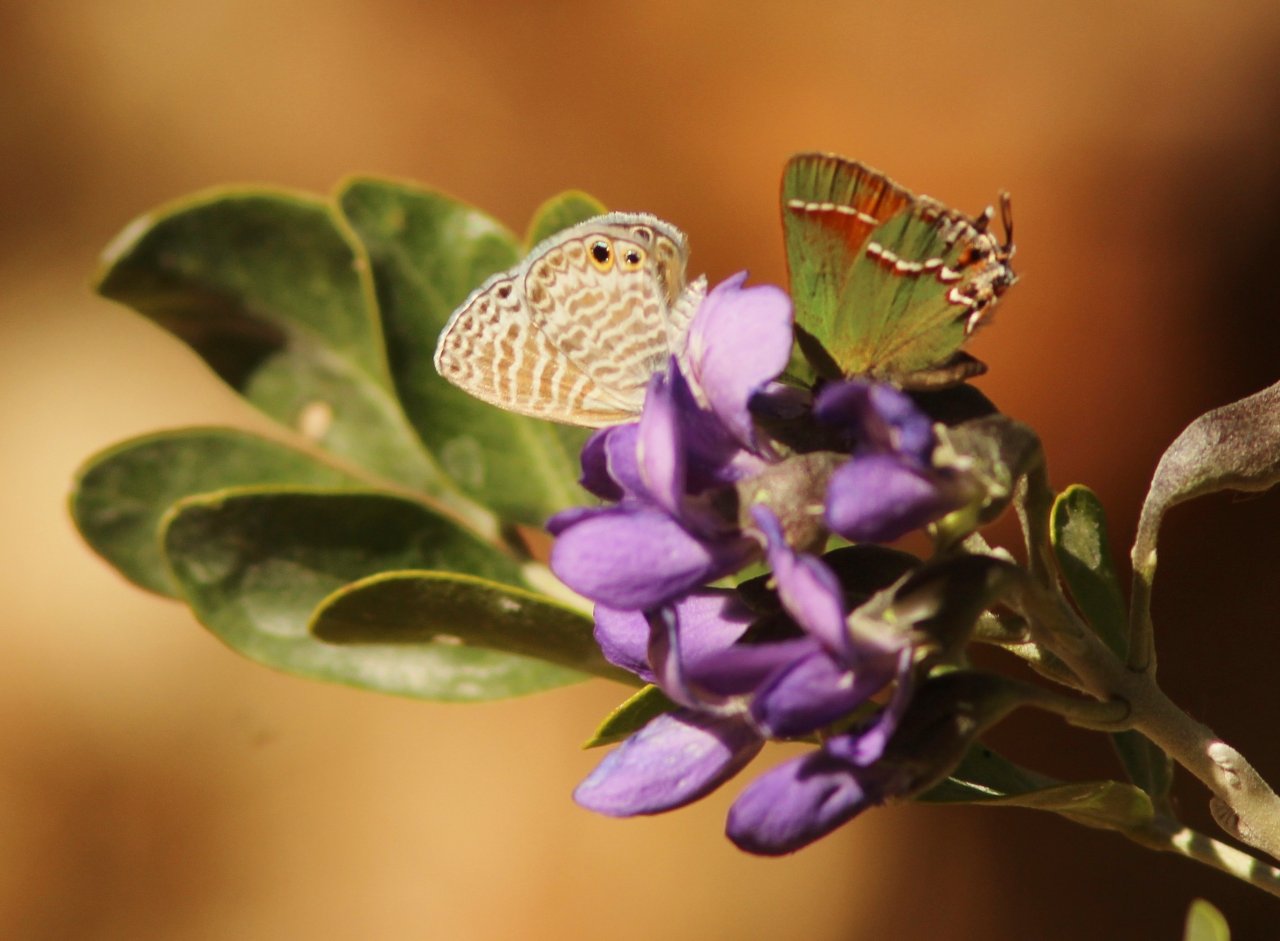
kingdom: Animalia
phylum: Arthropoda
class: Insecta
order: Lepidoptera
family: Lycaenidae
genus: Mitoura
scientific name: Mitoura gryneus
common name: Juniper Hairstreak
